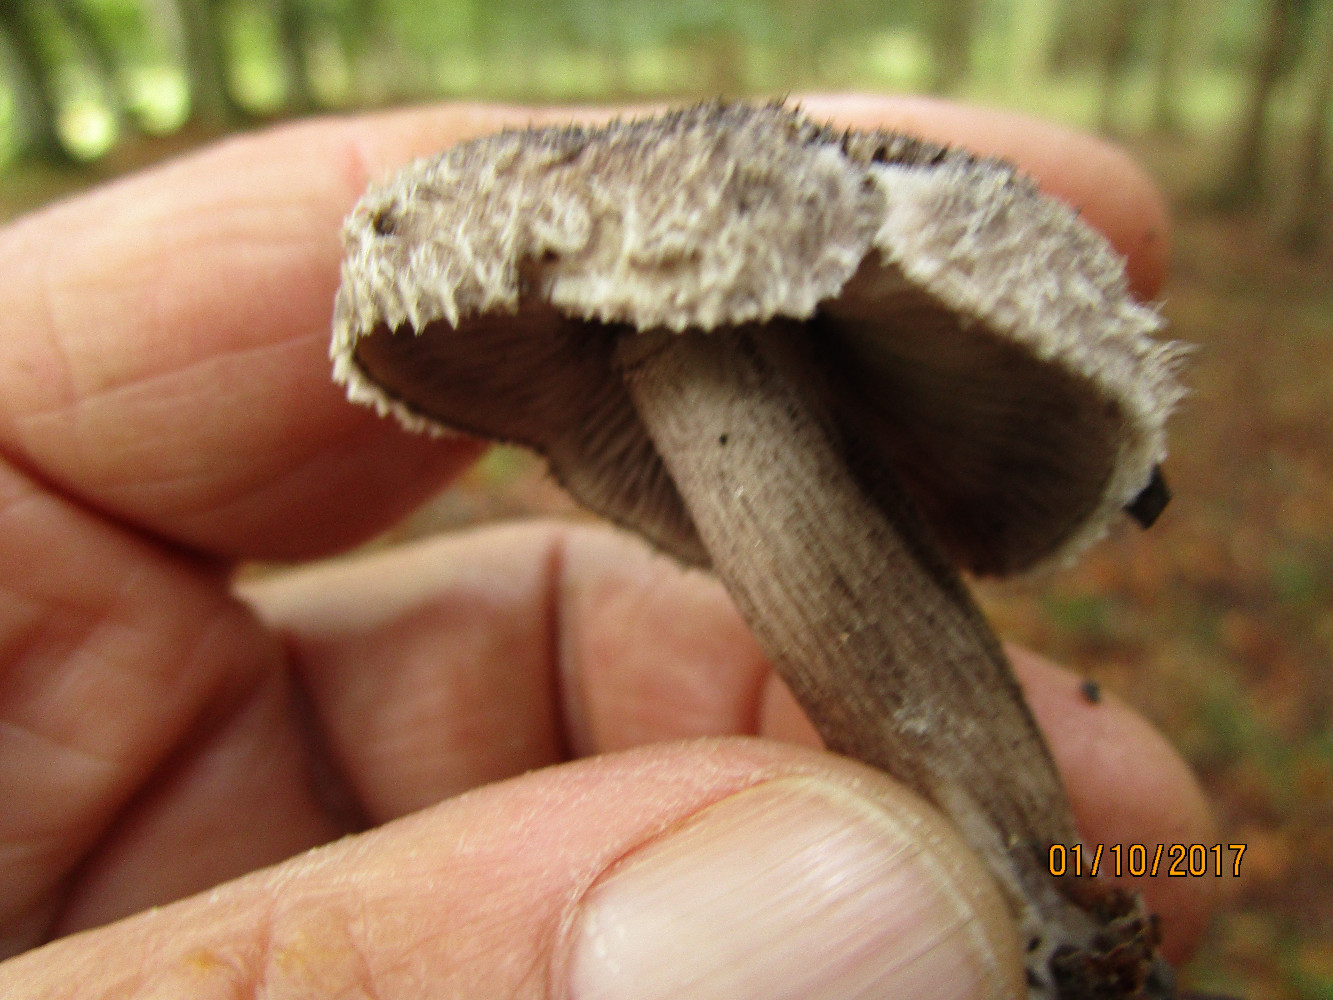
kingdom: Fungi
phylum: Basidiomycota
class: Agaricomycetes
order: Agaricales
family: Tricholomataceae
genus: Tricholoma
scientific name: Tricholoma atrosquamosum
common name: sortskællet ridderhat
